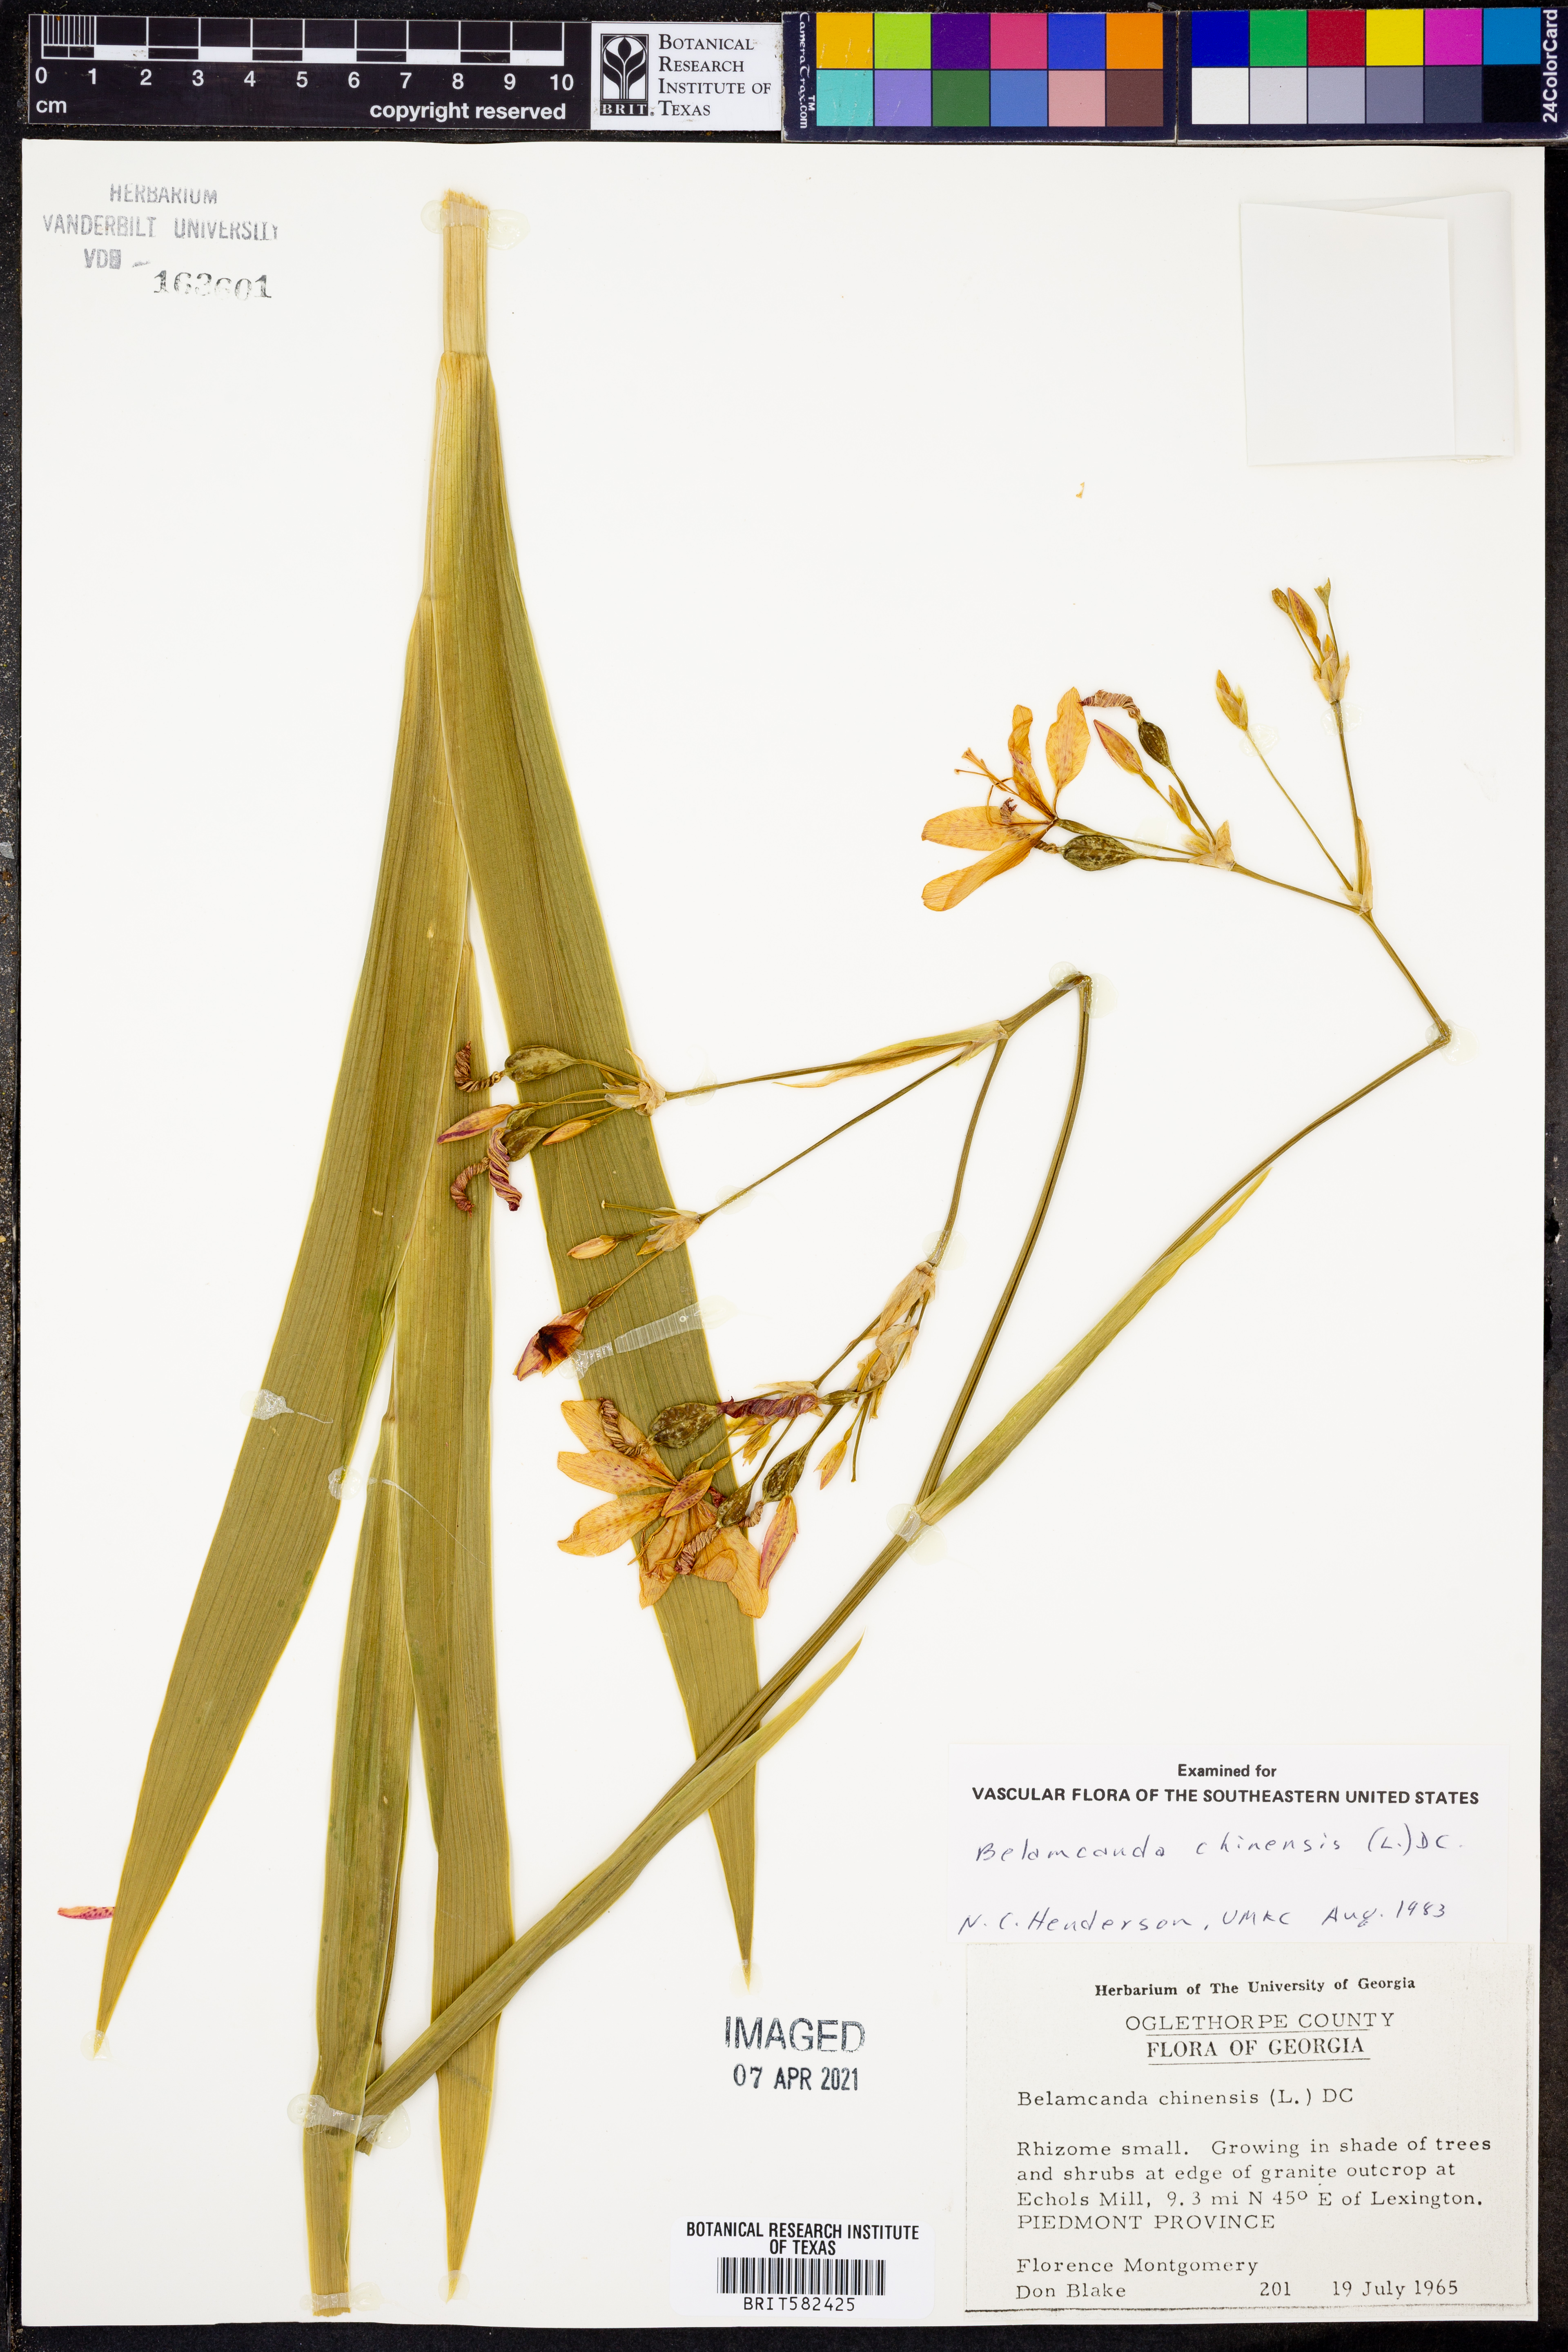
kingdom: Plantae
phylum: Tracheophyta
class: Liliopsida
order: Asparagales
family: Iridaceae
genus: Iris
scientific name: Iris domestica
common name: Belamcanda
